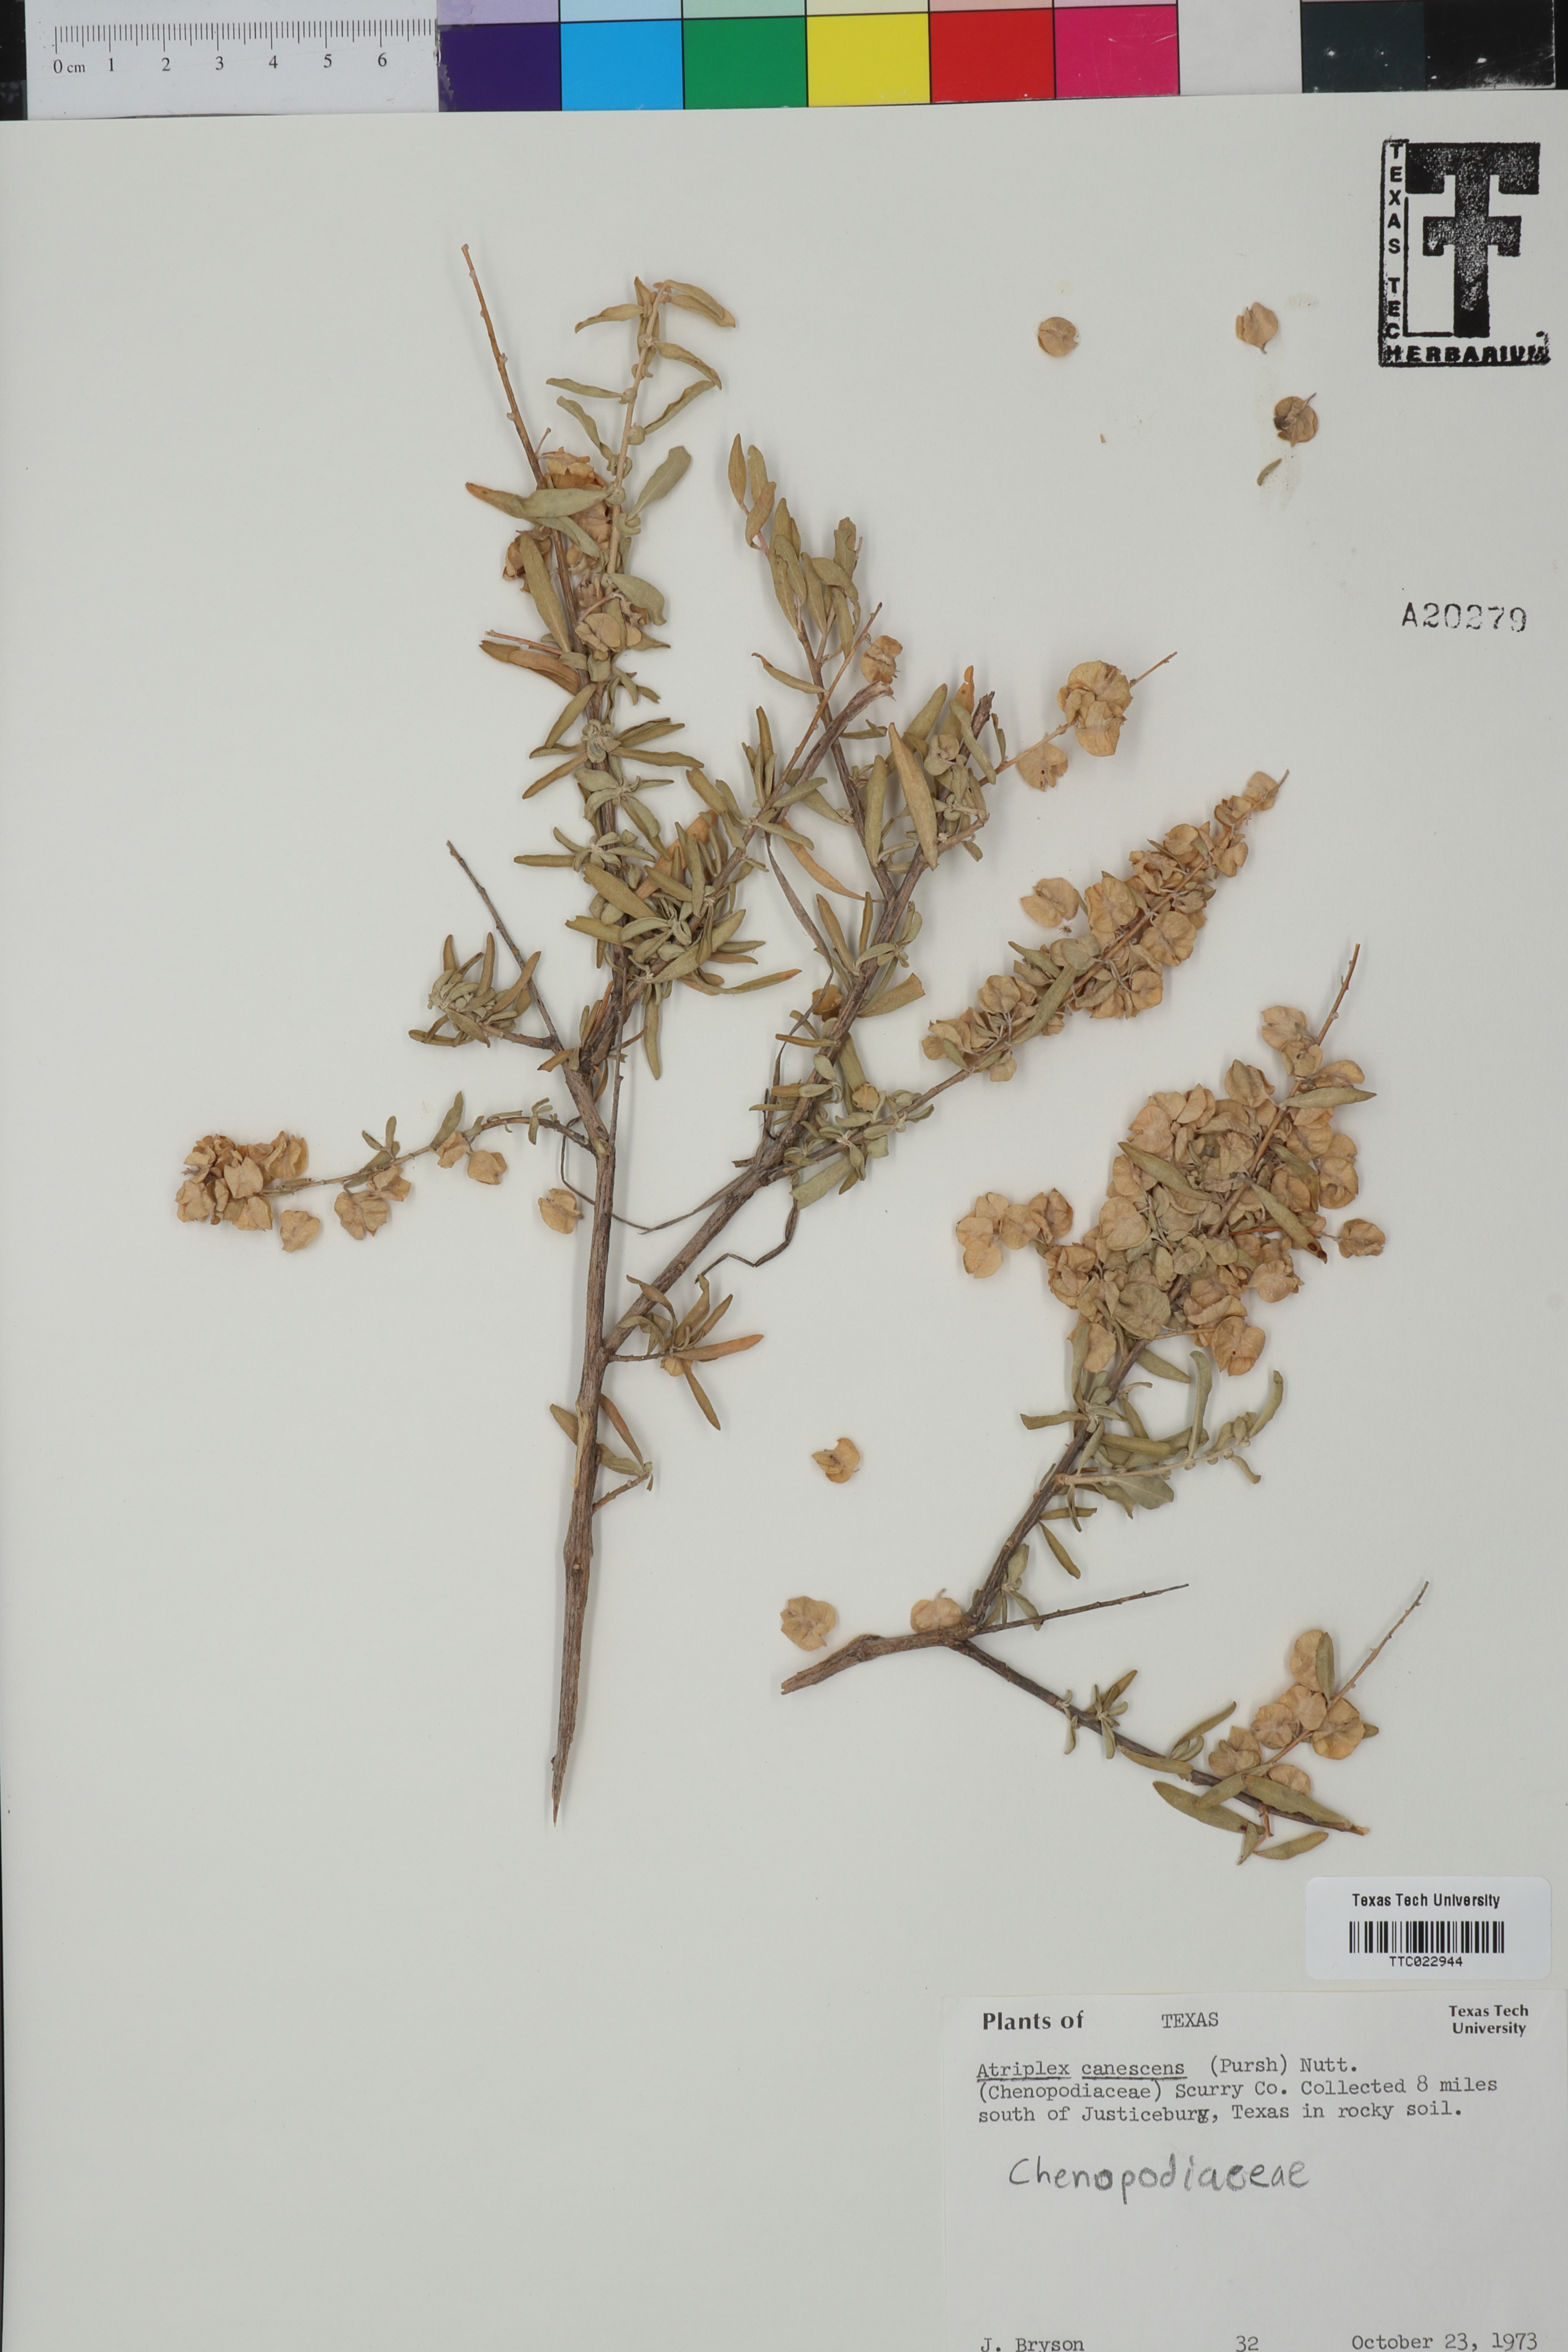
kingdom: Plantae
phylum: Tracheophyta
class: Magnoliopsida
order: Caryophyllales
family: Amaranthaceae
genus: Atriplex
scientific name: Atriplex canescens
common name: Four-wing saltbush
